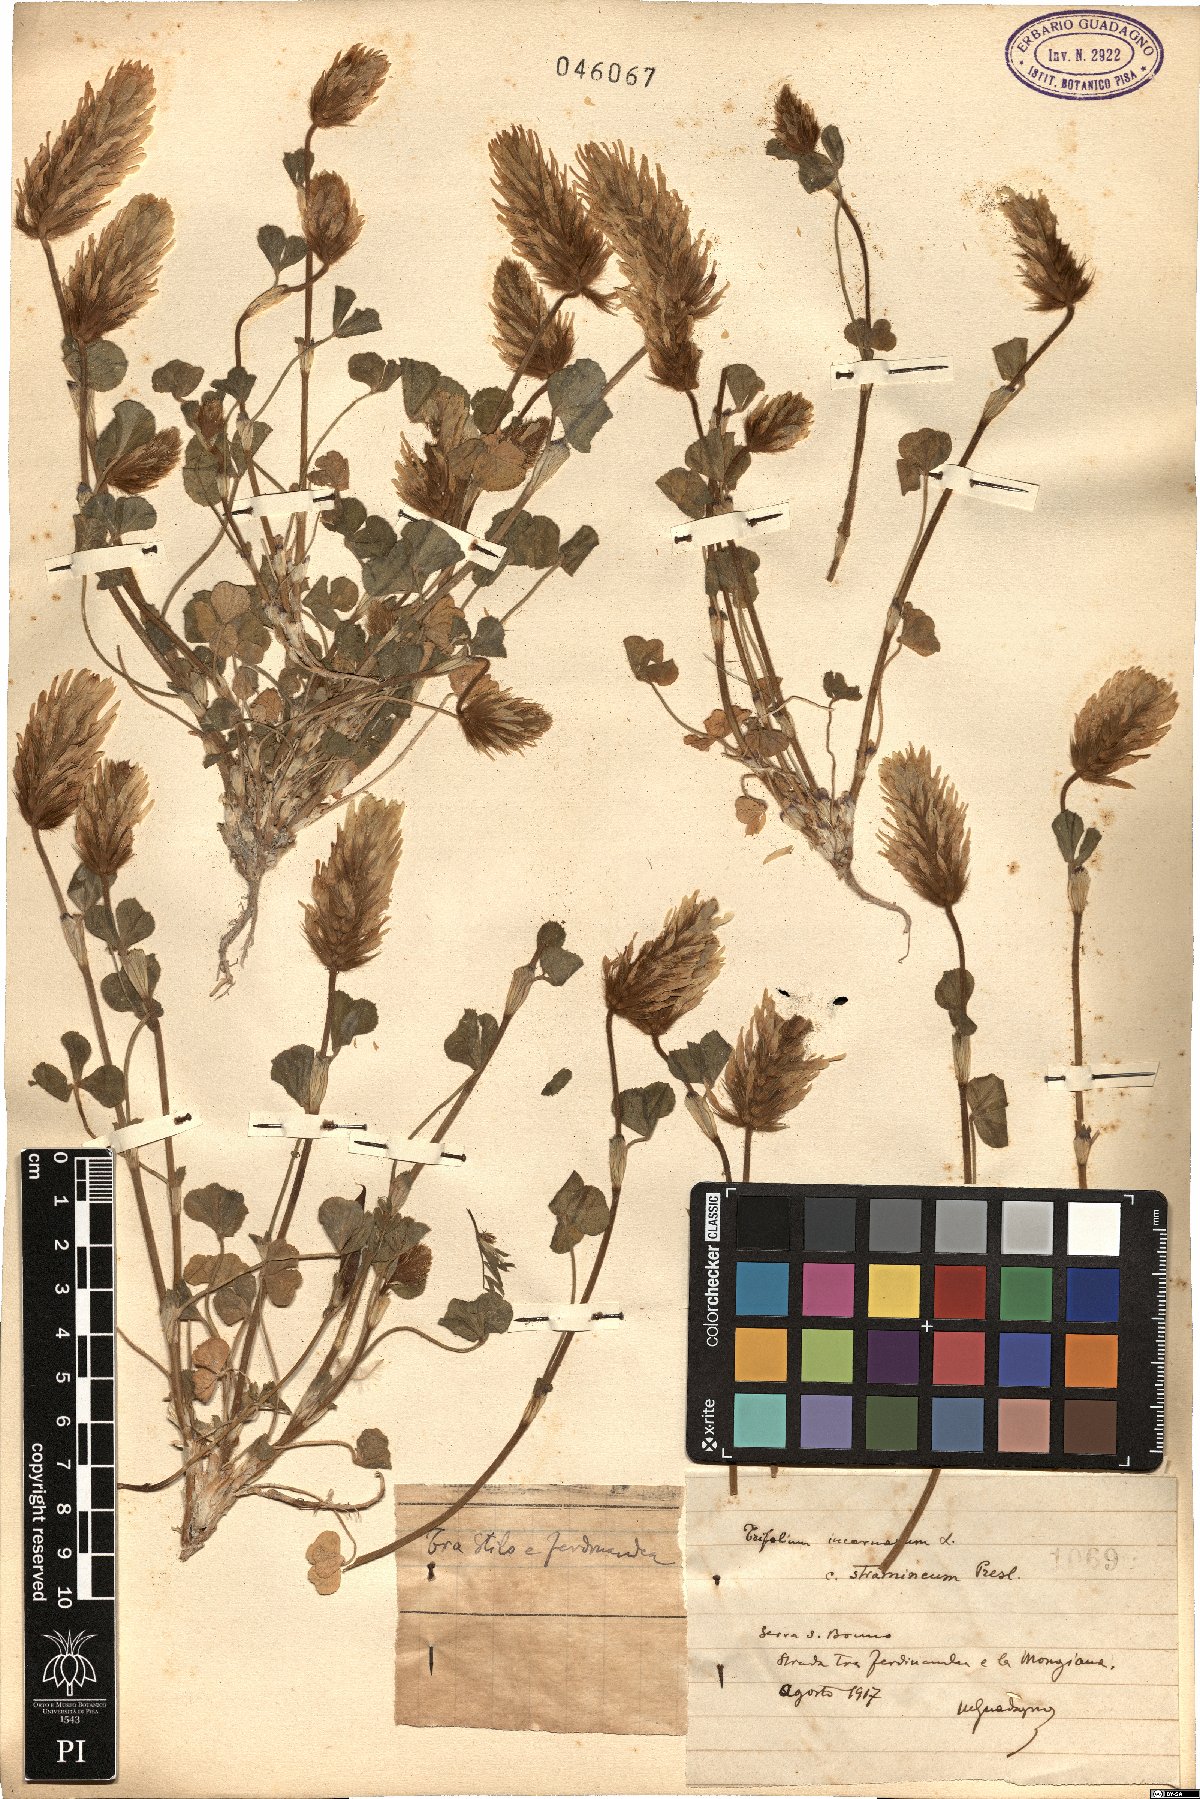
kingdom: Plantae
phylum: Tracheophyta
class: Magnoliopsida
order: Fabales
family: Fabaceae
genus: Trifolium
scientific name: Trifolium incarnatum
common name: Crimson clover
